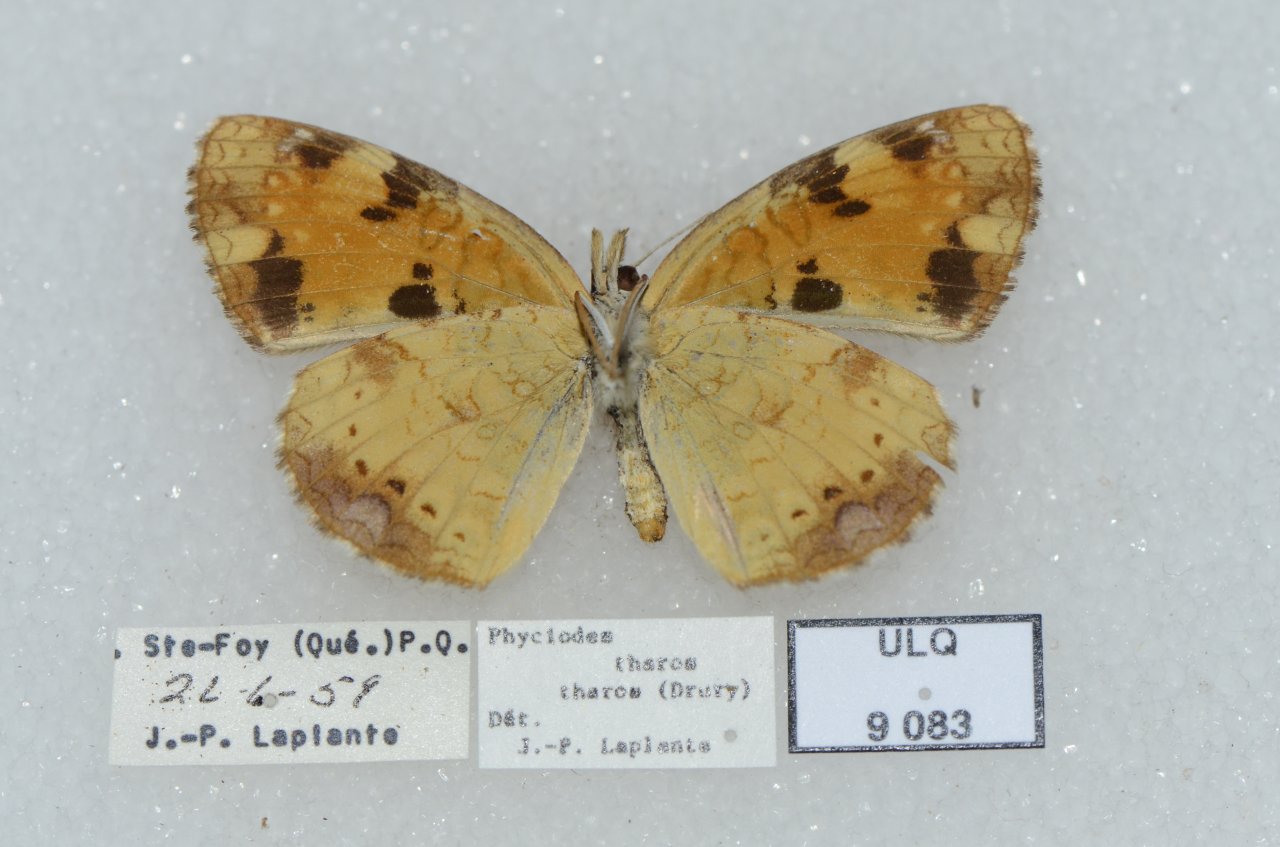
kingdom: Animalia
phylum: Arthropoda
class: Insecta
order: Lepidoptera
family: Nymphalidae
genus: Phyciodes
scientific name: Phyciodes tharos
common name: Northern Crescent
